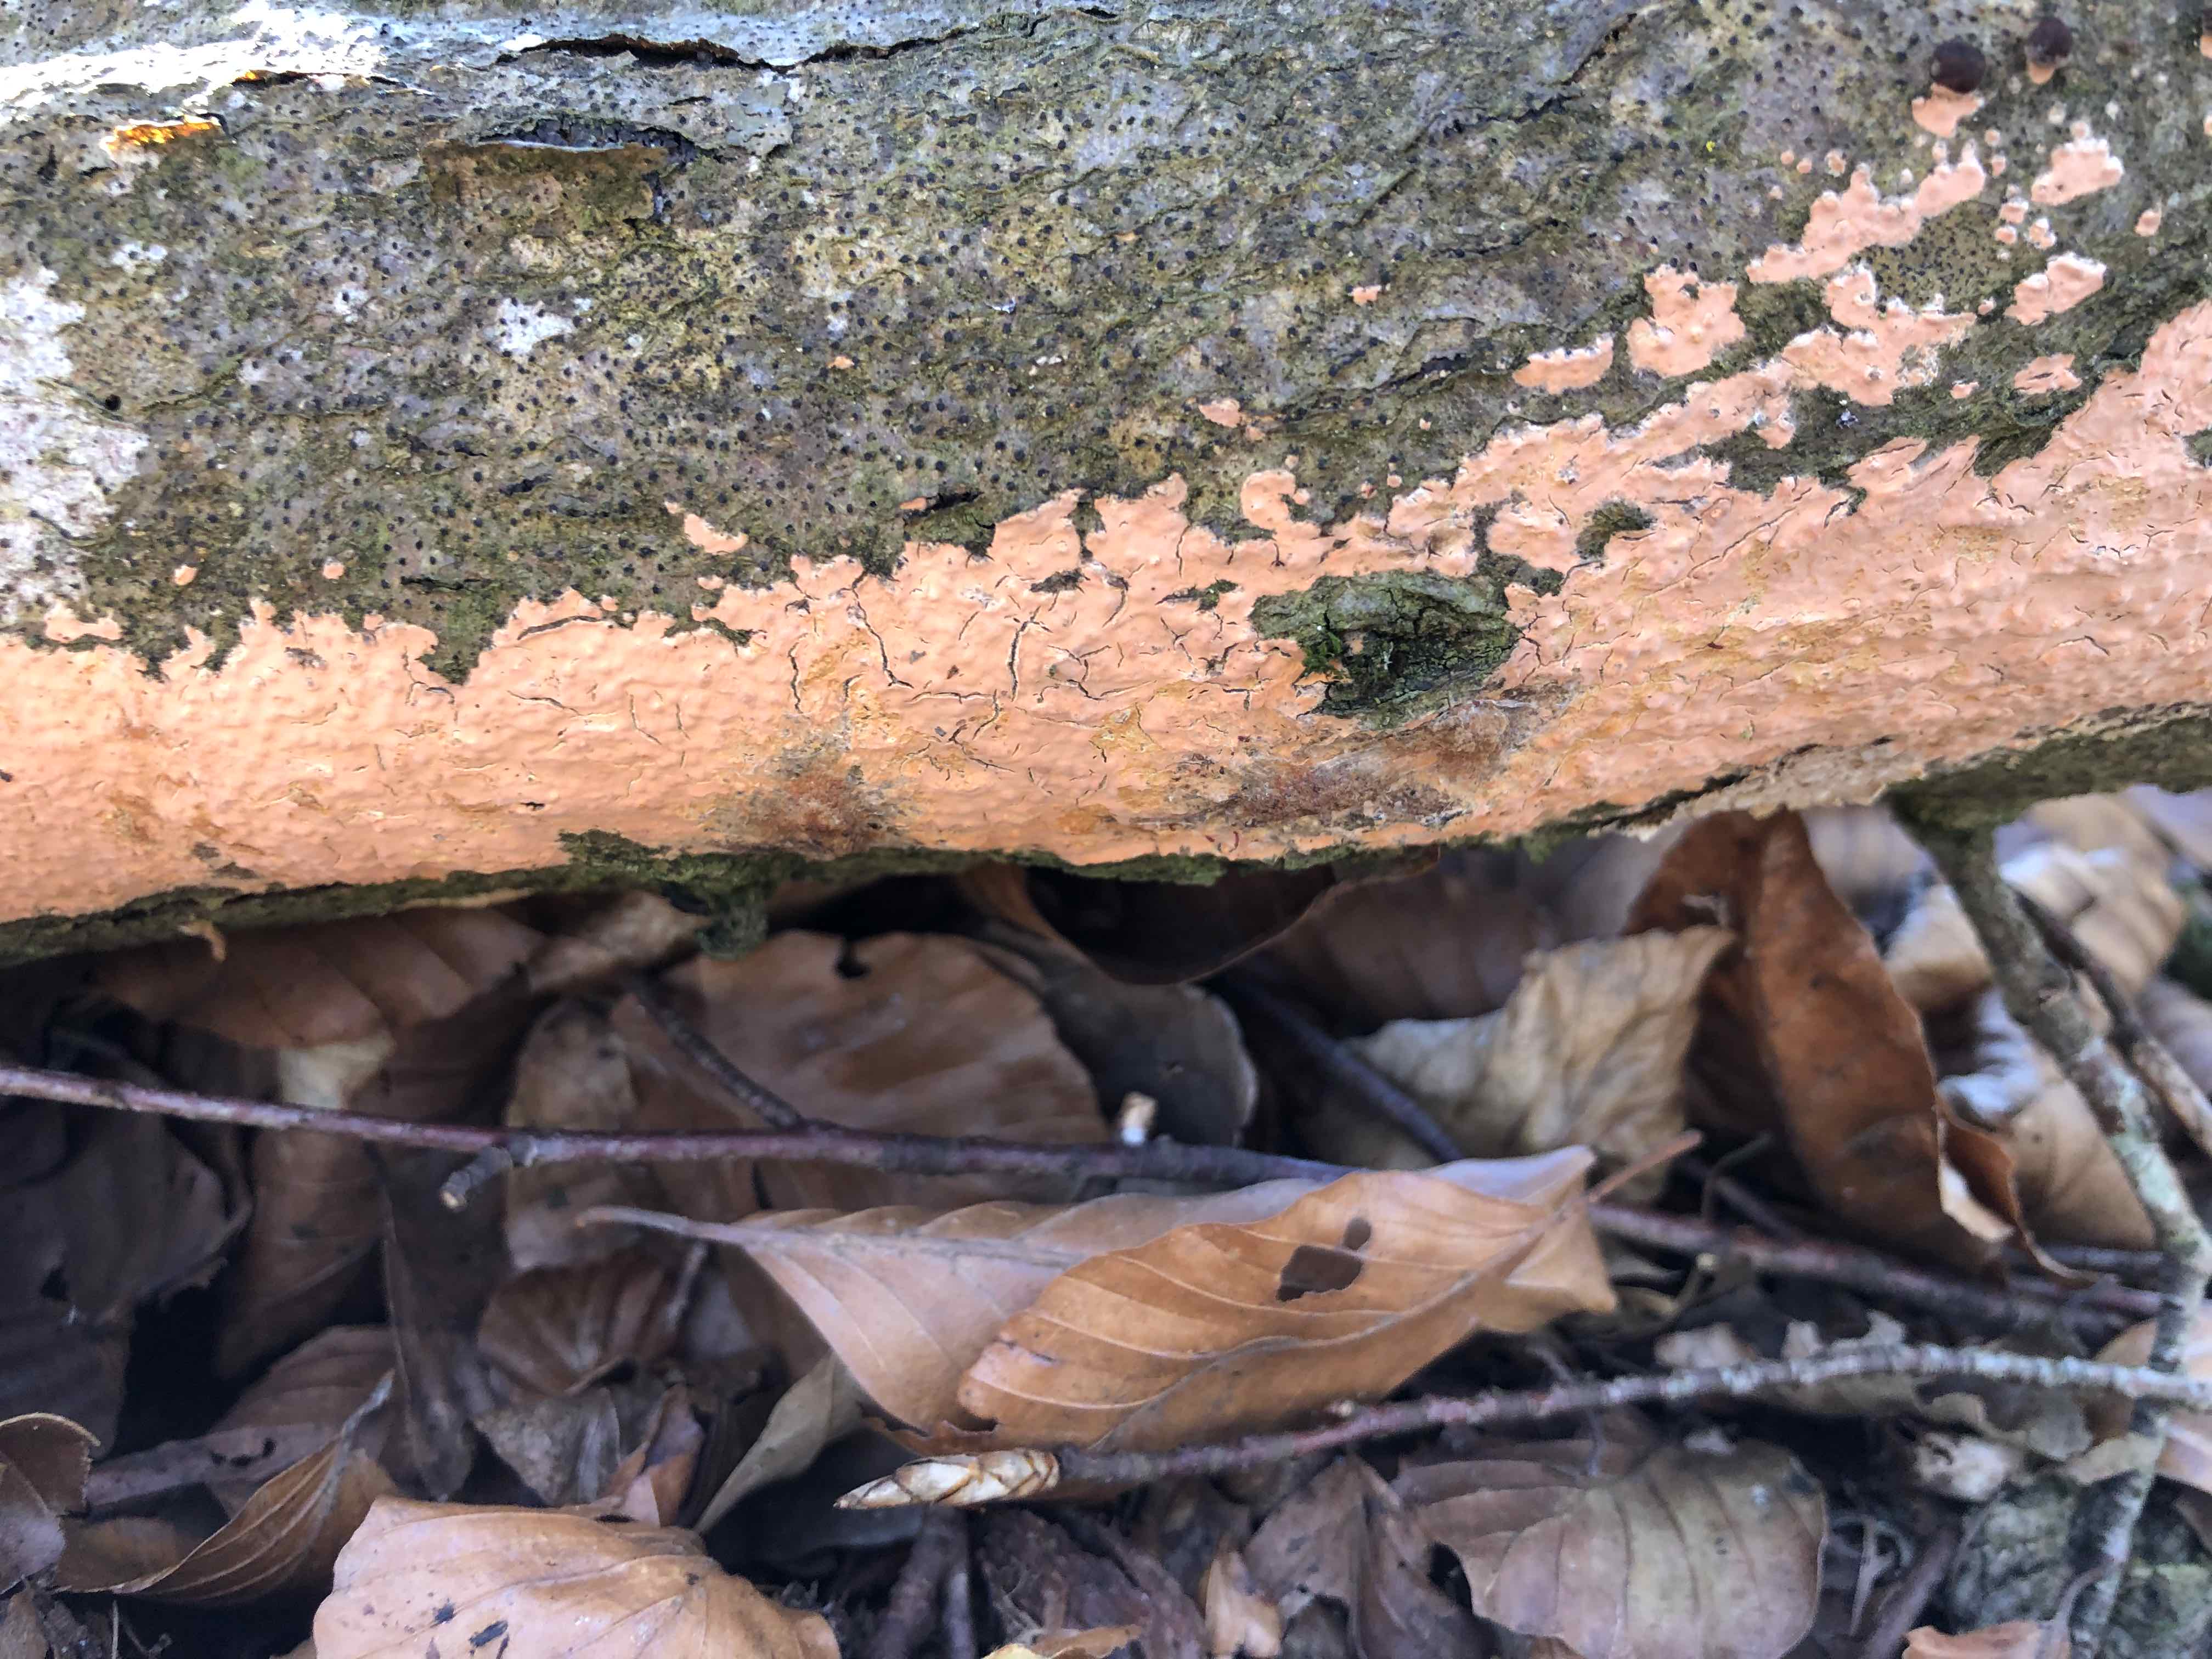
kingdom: Fungi
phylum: Basidiomycota
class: Agaricomycetes
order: Russulales
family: Peniophoraceae
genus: Peniophora
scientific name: Peniophora incarnata
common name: laksefarvet voksskind
